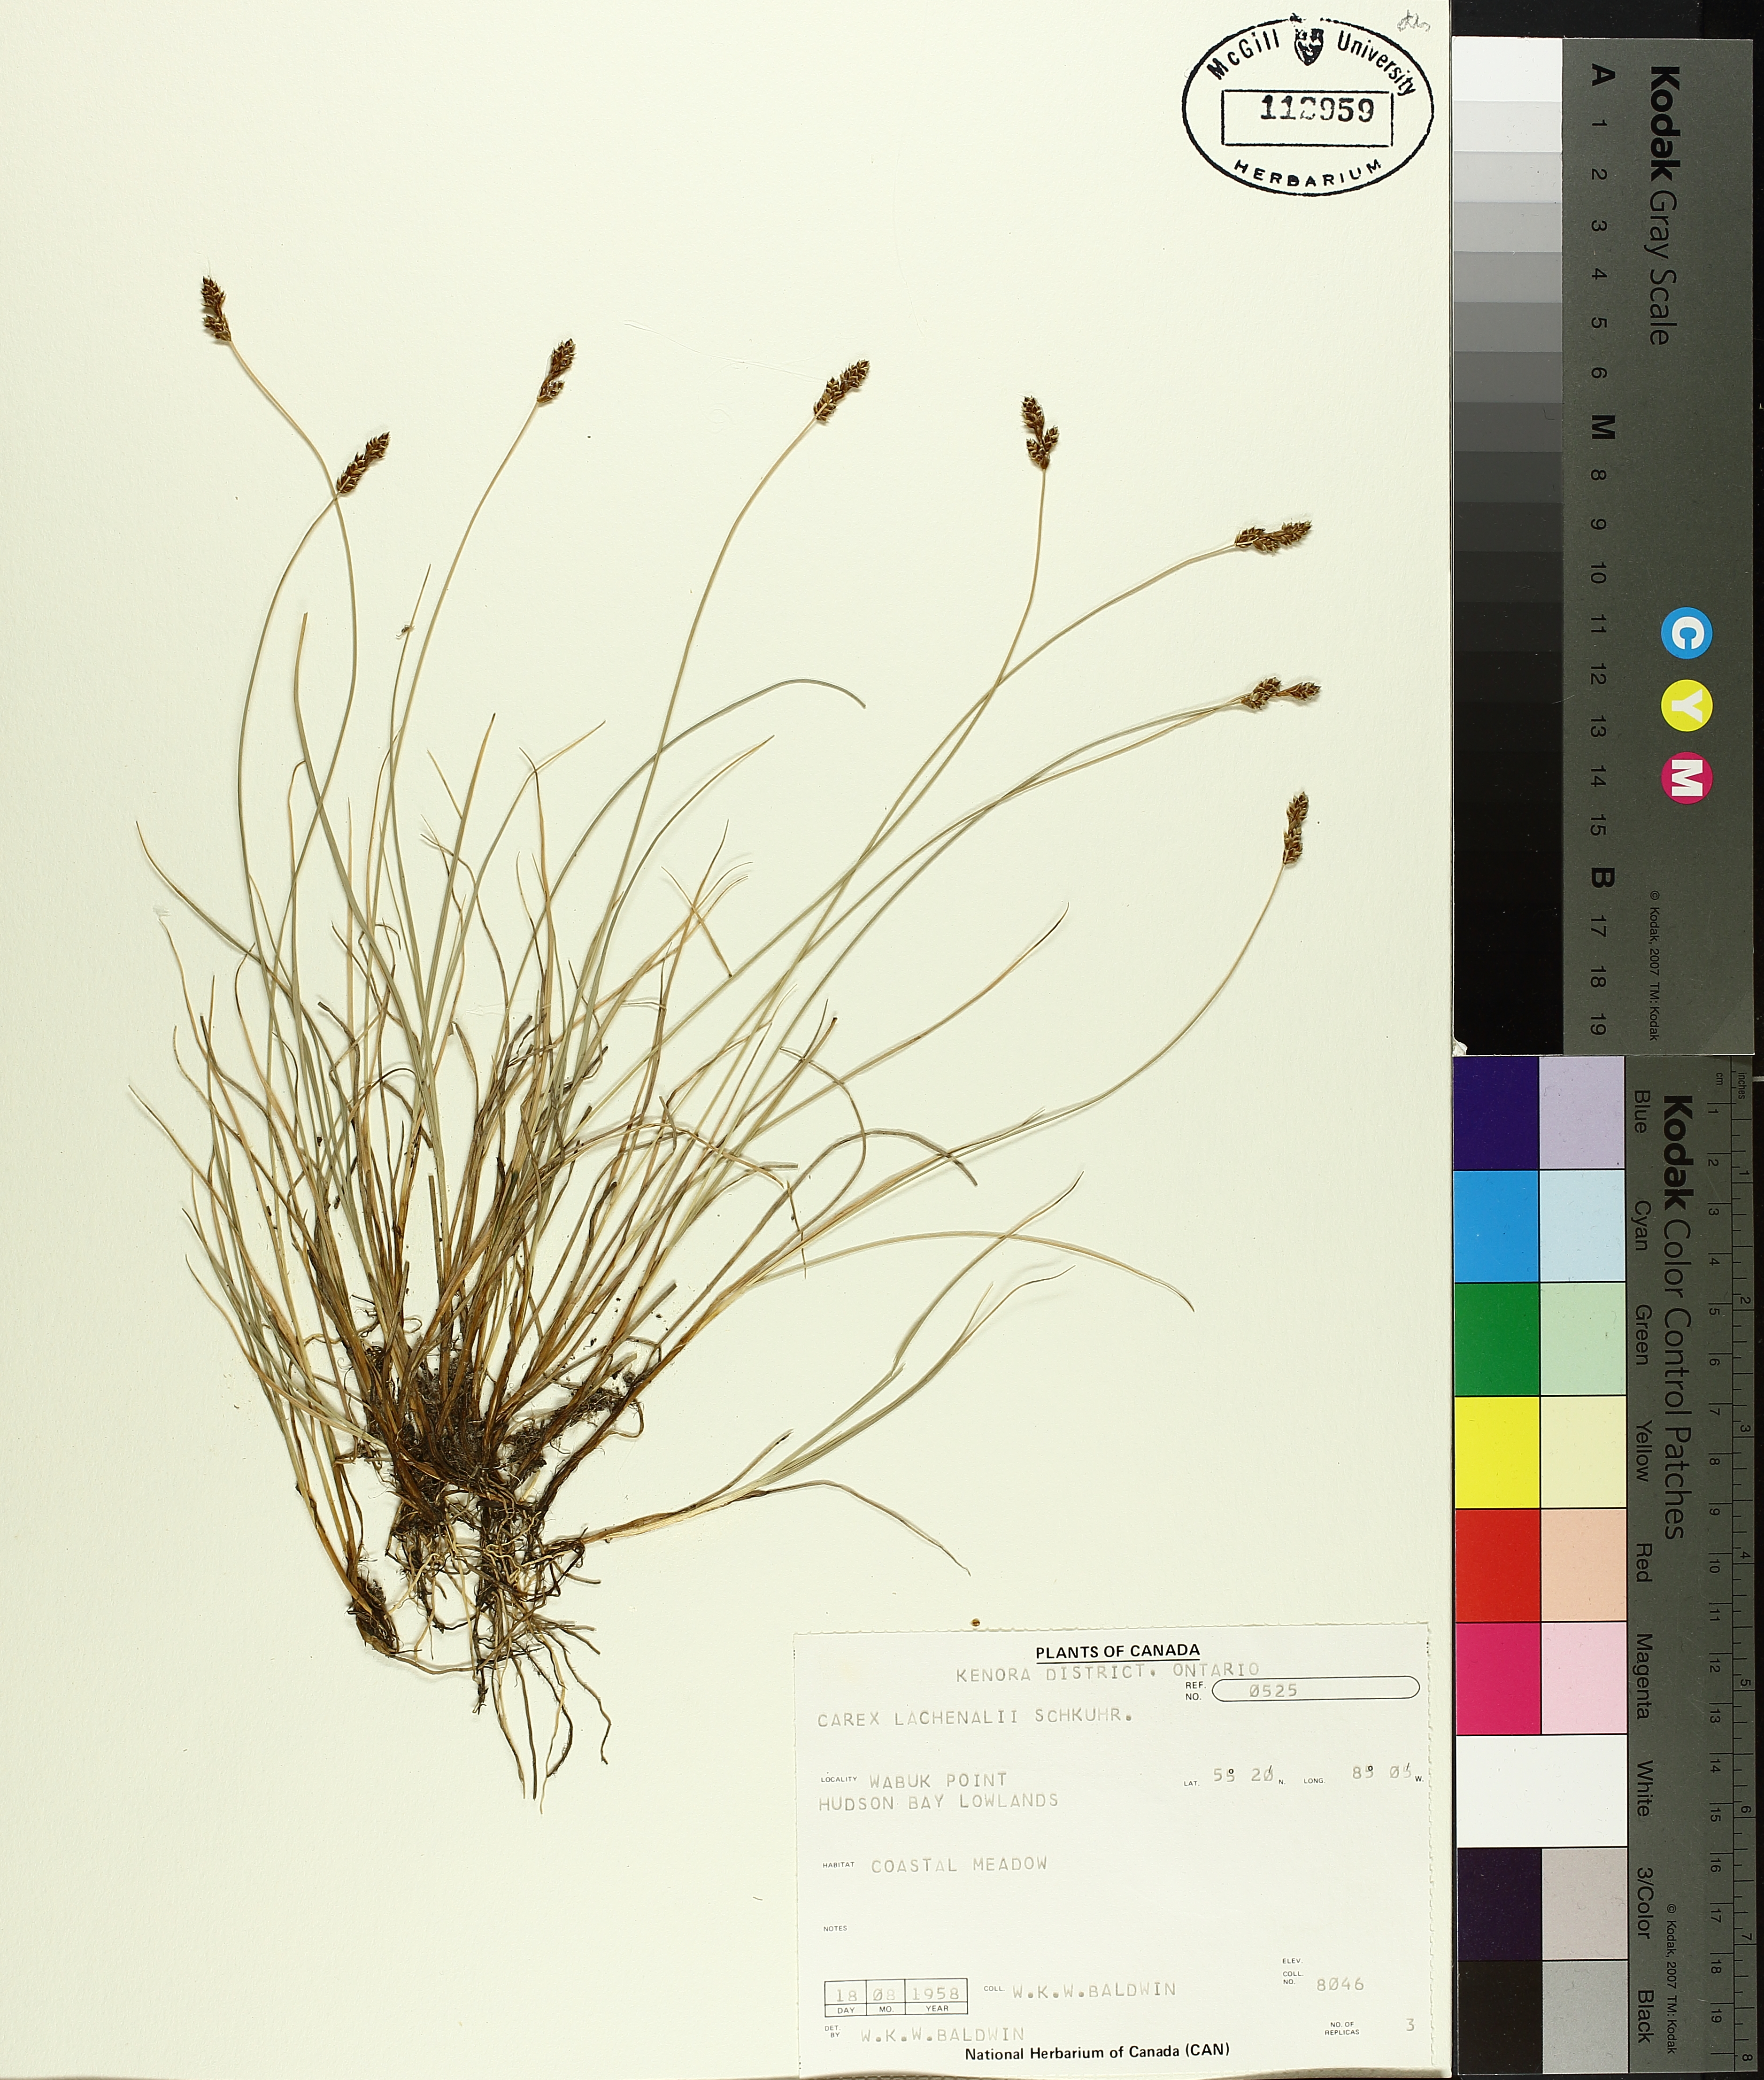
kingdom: Plantae
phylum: Tracheophyta
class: Liliopsida
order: Poales
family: Cyperaceae
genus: Carex
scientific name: Carex lachenalii
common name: Hare's-foot sedge
